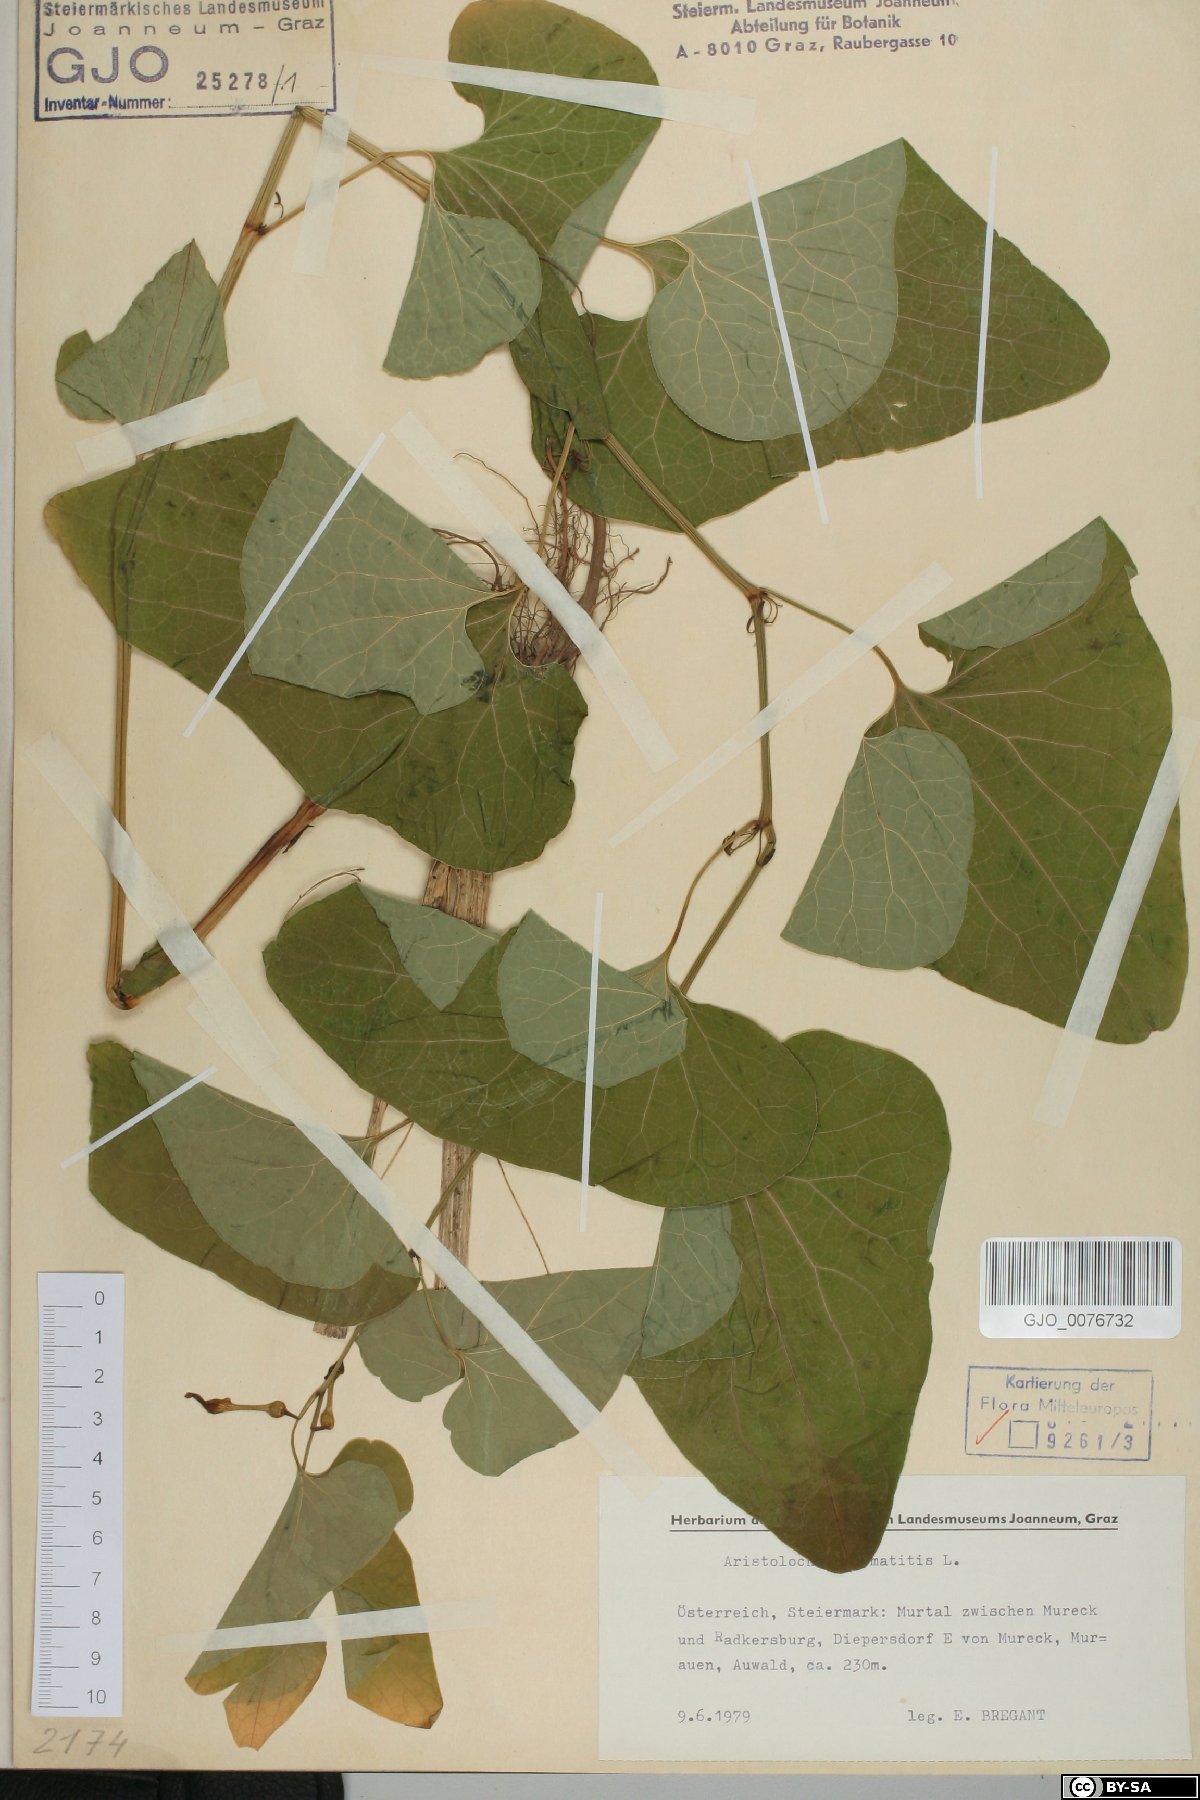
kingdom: Plantae
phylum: Tracheophyta
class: Magnoliopsida
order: Piperales
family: Aristolochiaceae
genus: Aristolochia
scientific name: Aristolochia clematitis
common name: Birthwort
